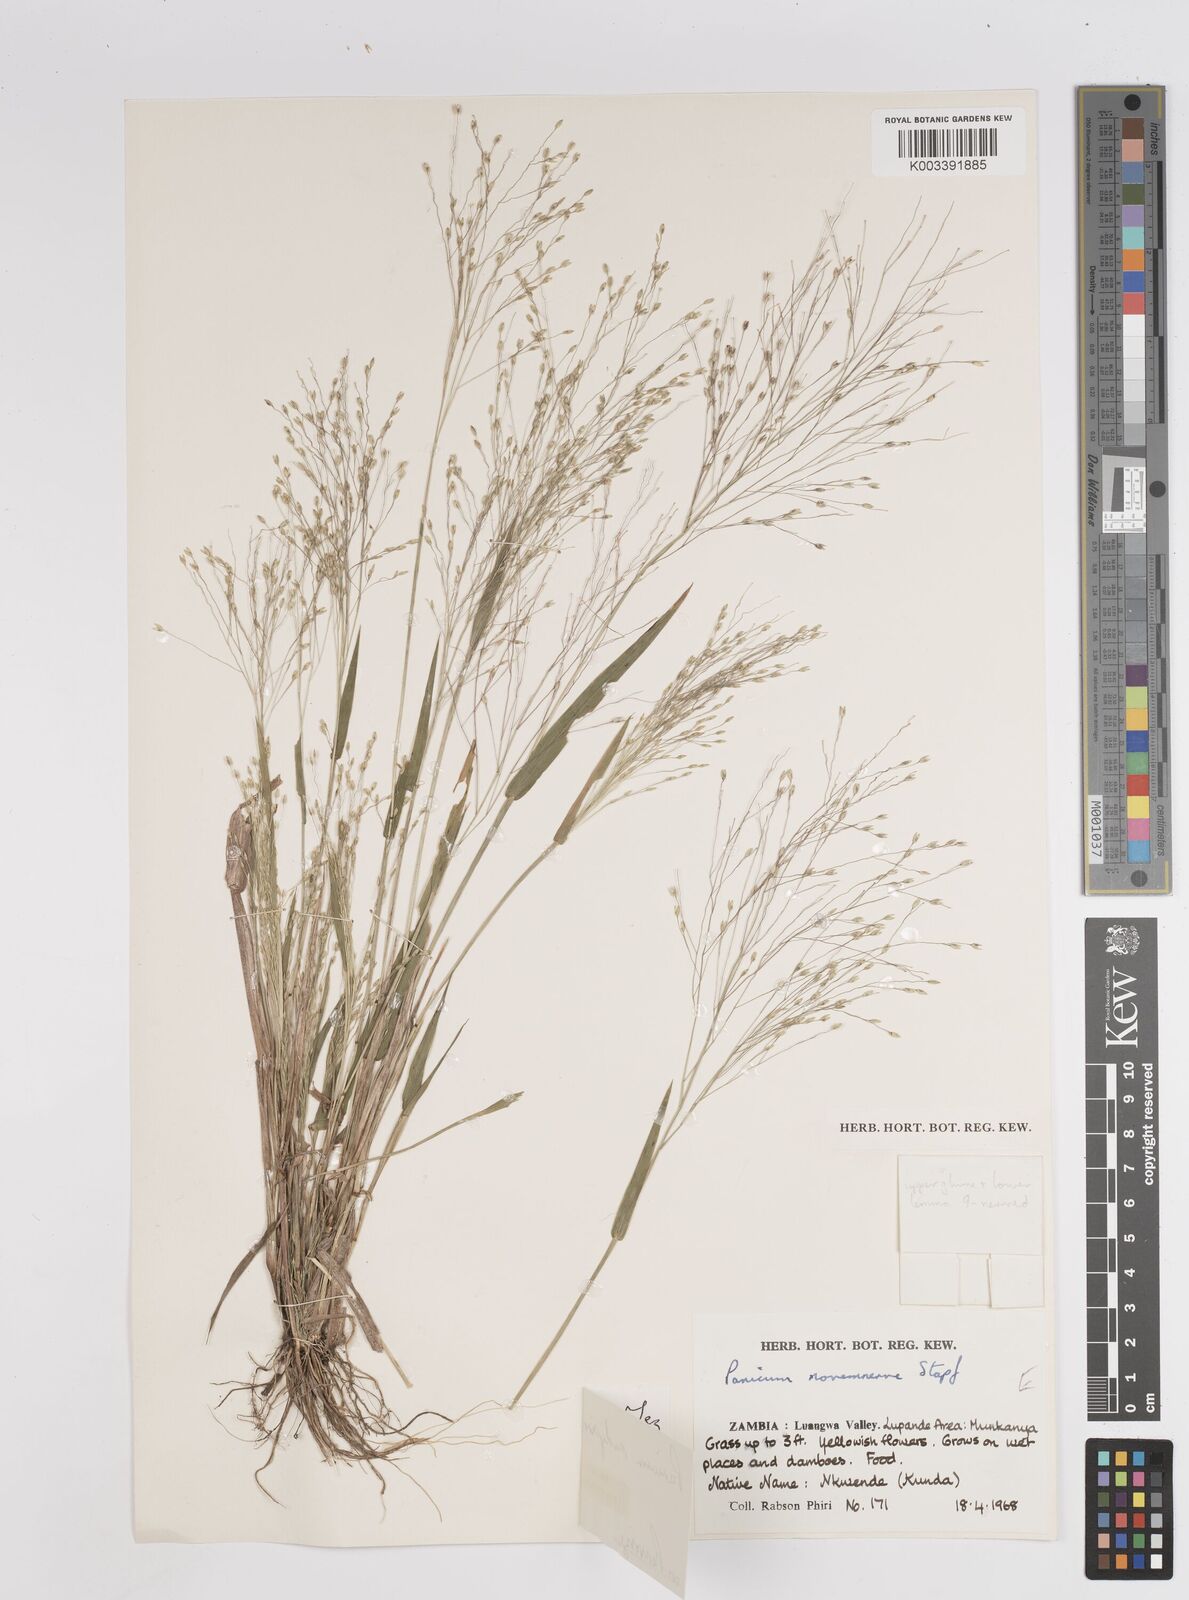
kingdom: Plantae
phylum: Tracheophyta
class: Liliopsida
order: Poales
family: Poaceae
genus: Panicum
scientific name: Panicum madipirense
